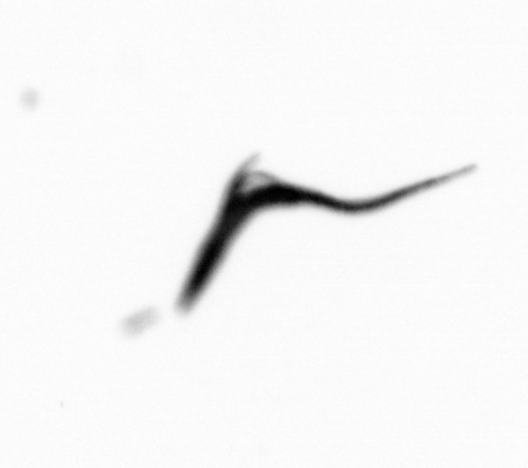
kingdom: Animalia
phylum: Arthropoda
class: Copepoda
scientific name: Copepoda
